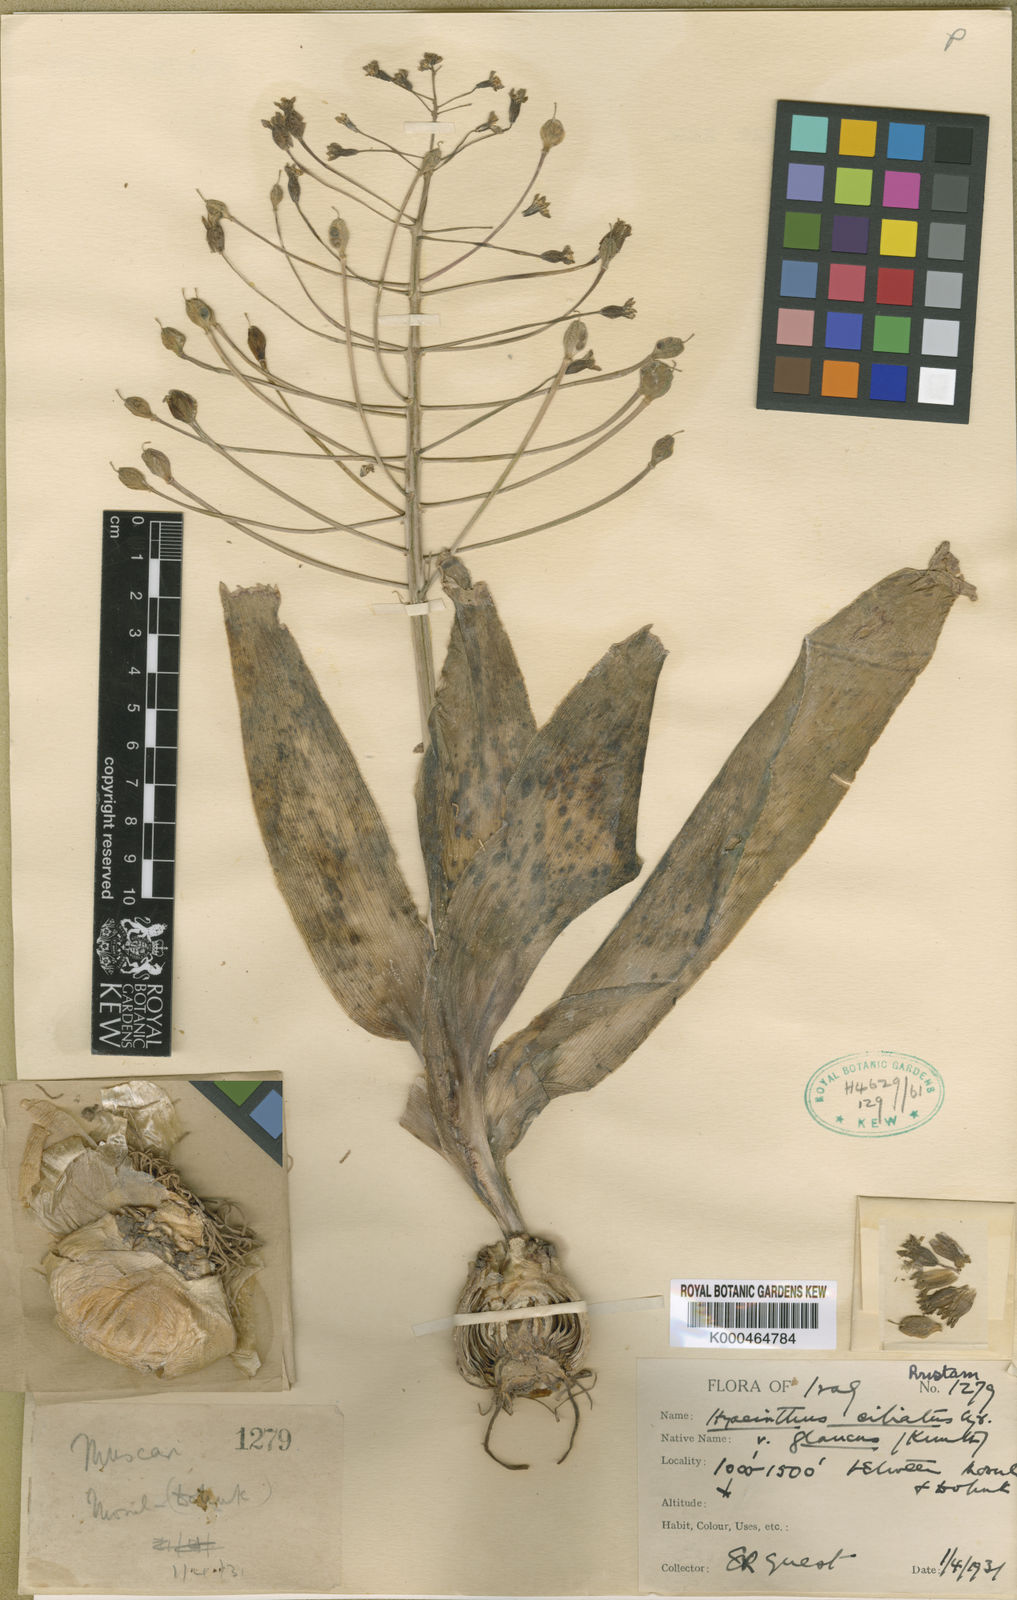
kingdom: Plantae
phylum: Tracheophyta
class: Liliopsida
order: Asparagales
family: Asparagaceae
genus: Bellevalia
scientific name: Bellevalia glauca
